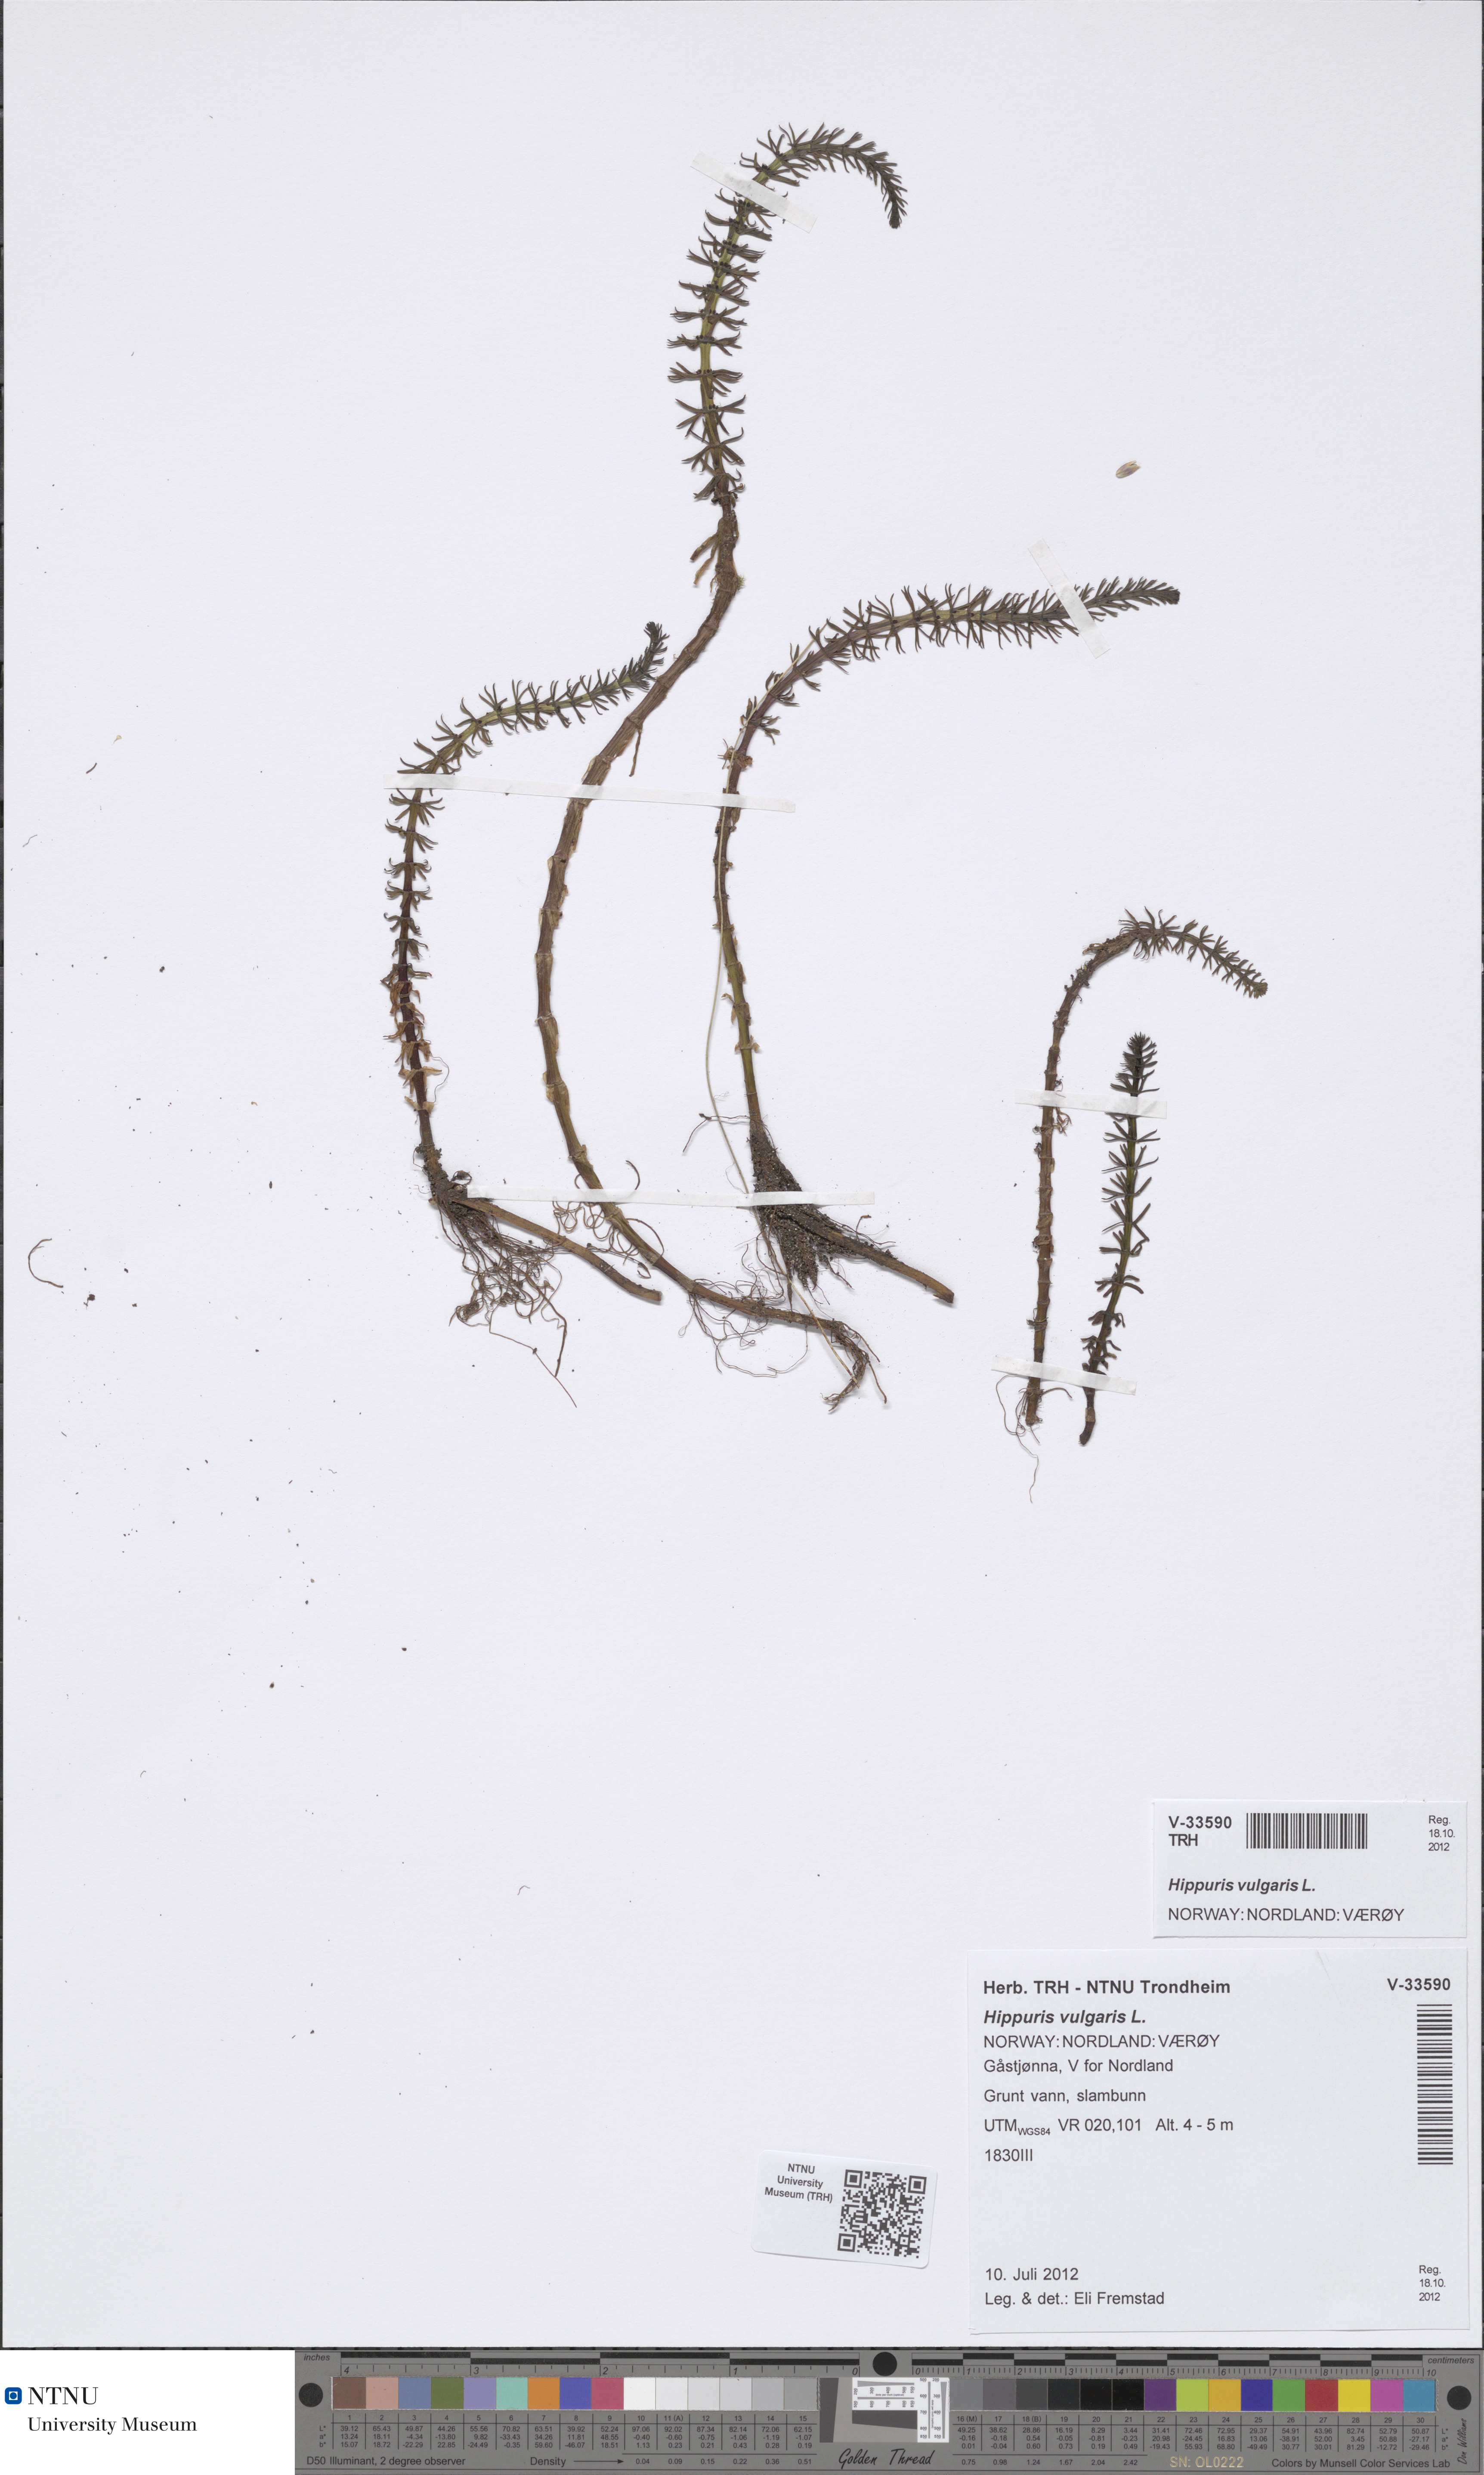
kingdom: Plantae
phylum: Tracheophyta
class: Magnoliopsida
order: Lamiales
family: Plantaginaceae
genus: Hippuris
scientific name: Hippuris vulgaris
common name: Mare's-tail
